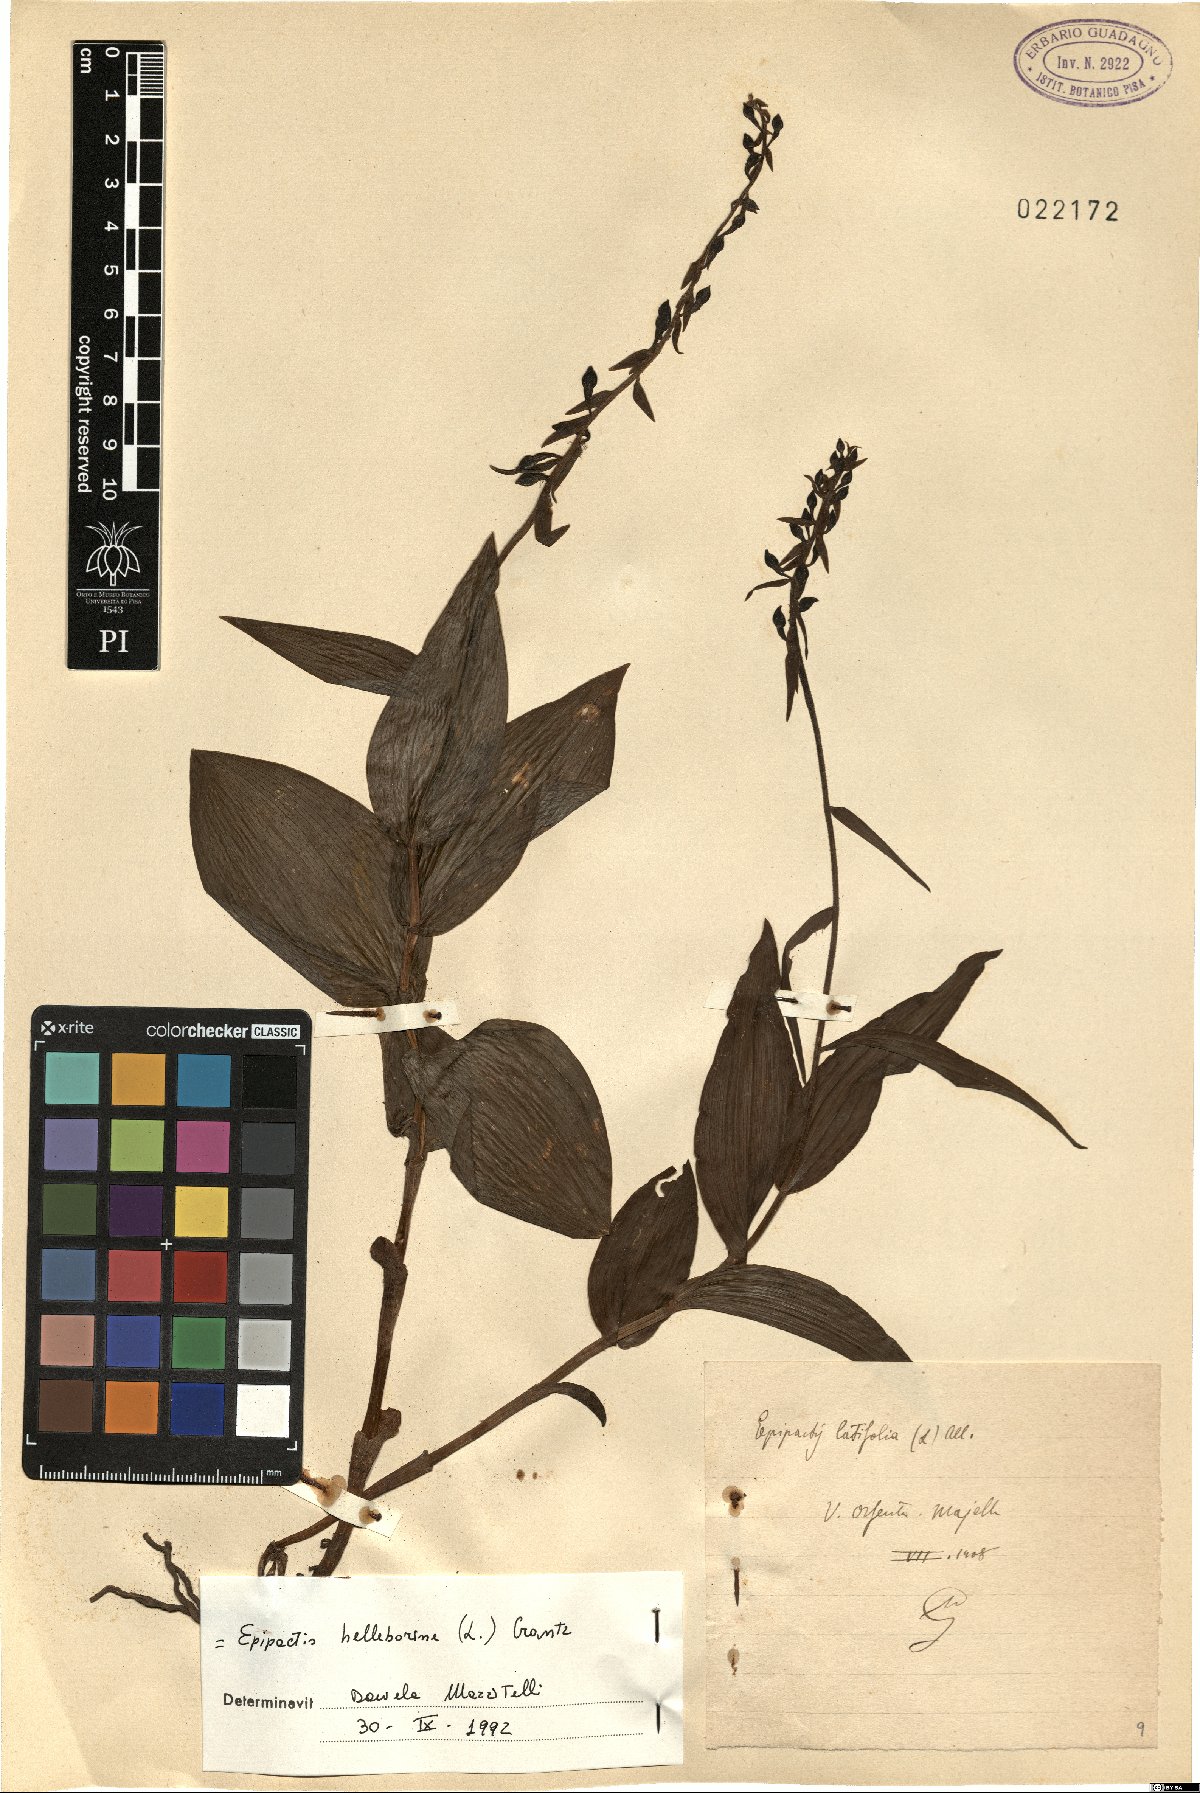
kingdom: Plantae
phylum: Tracheophyta
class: Liliopsida
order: Asparagales
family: Orchidaceae
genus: Epipactis
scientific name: Epipactis helleborine
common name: Broad-leaved helleborine
